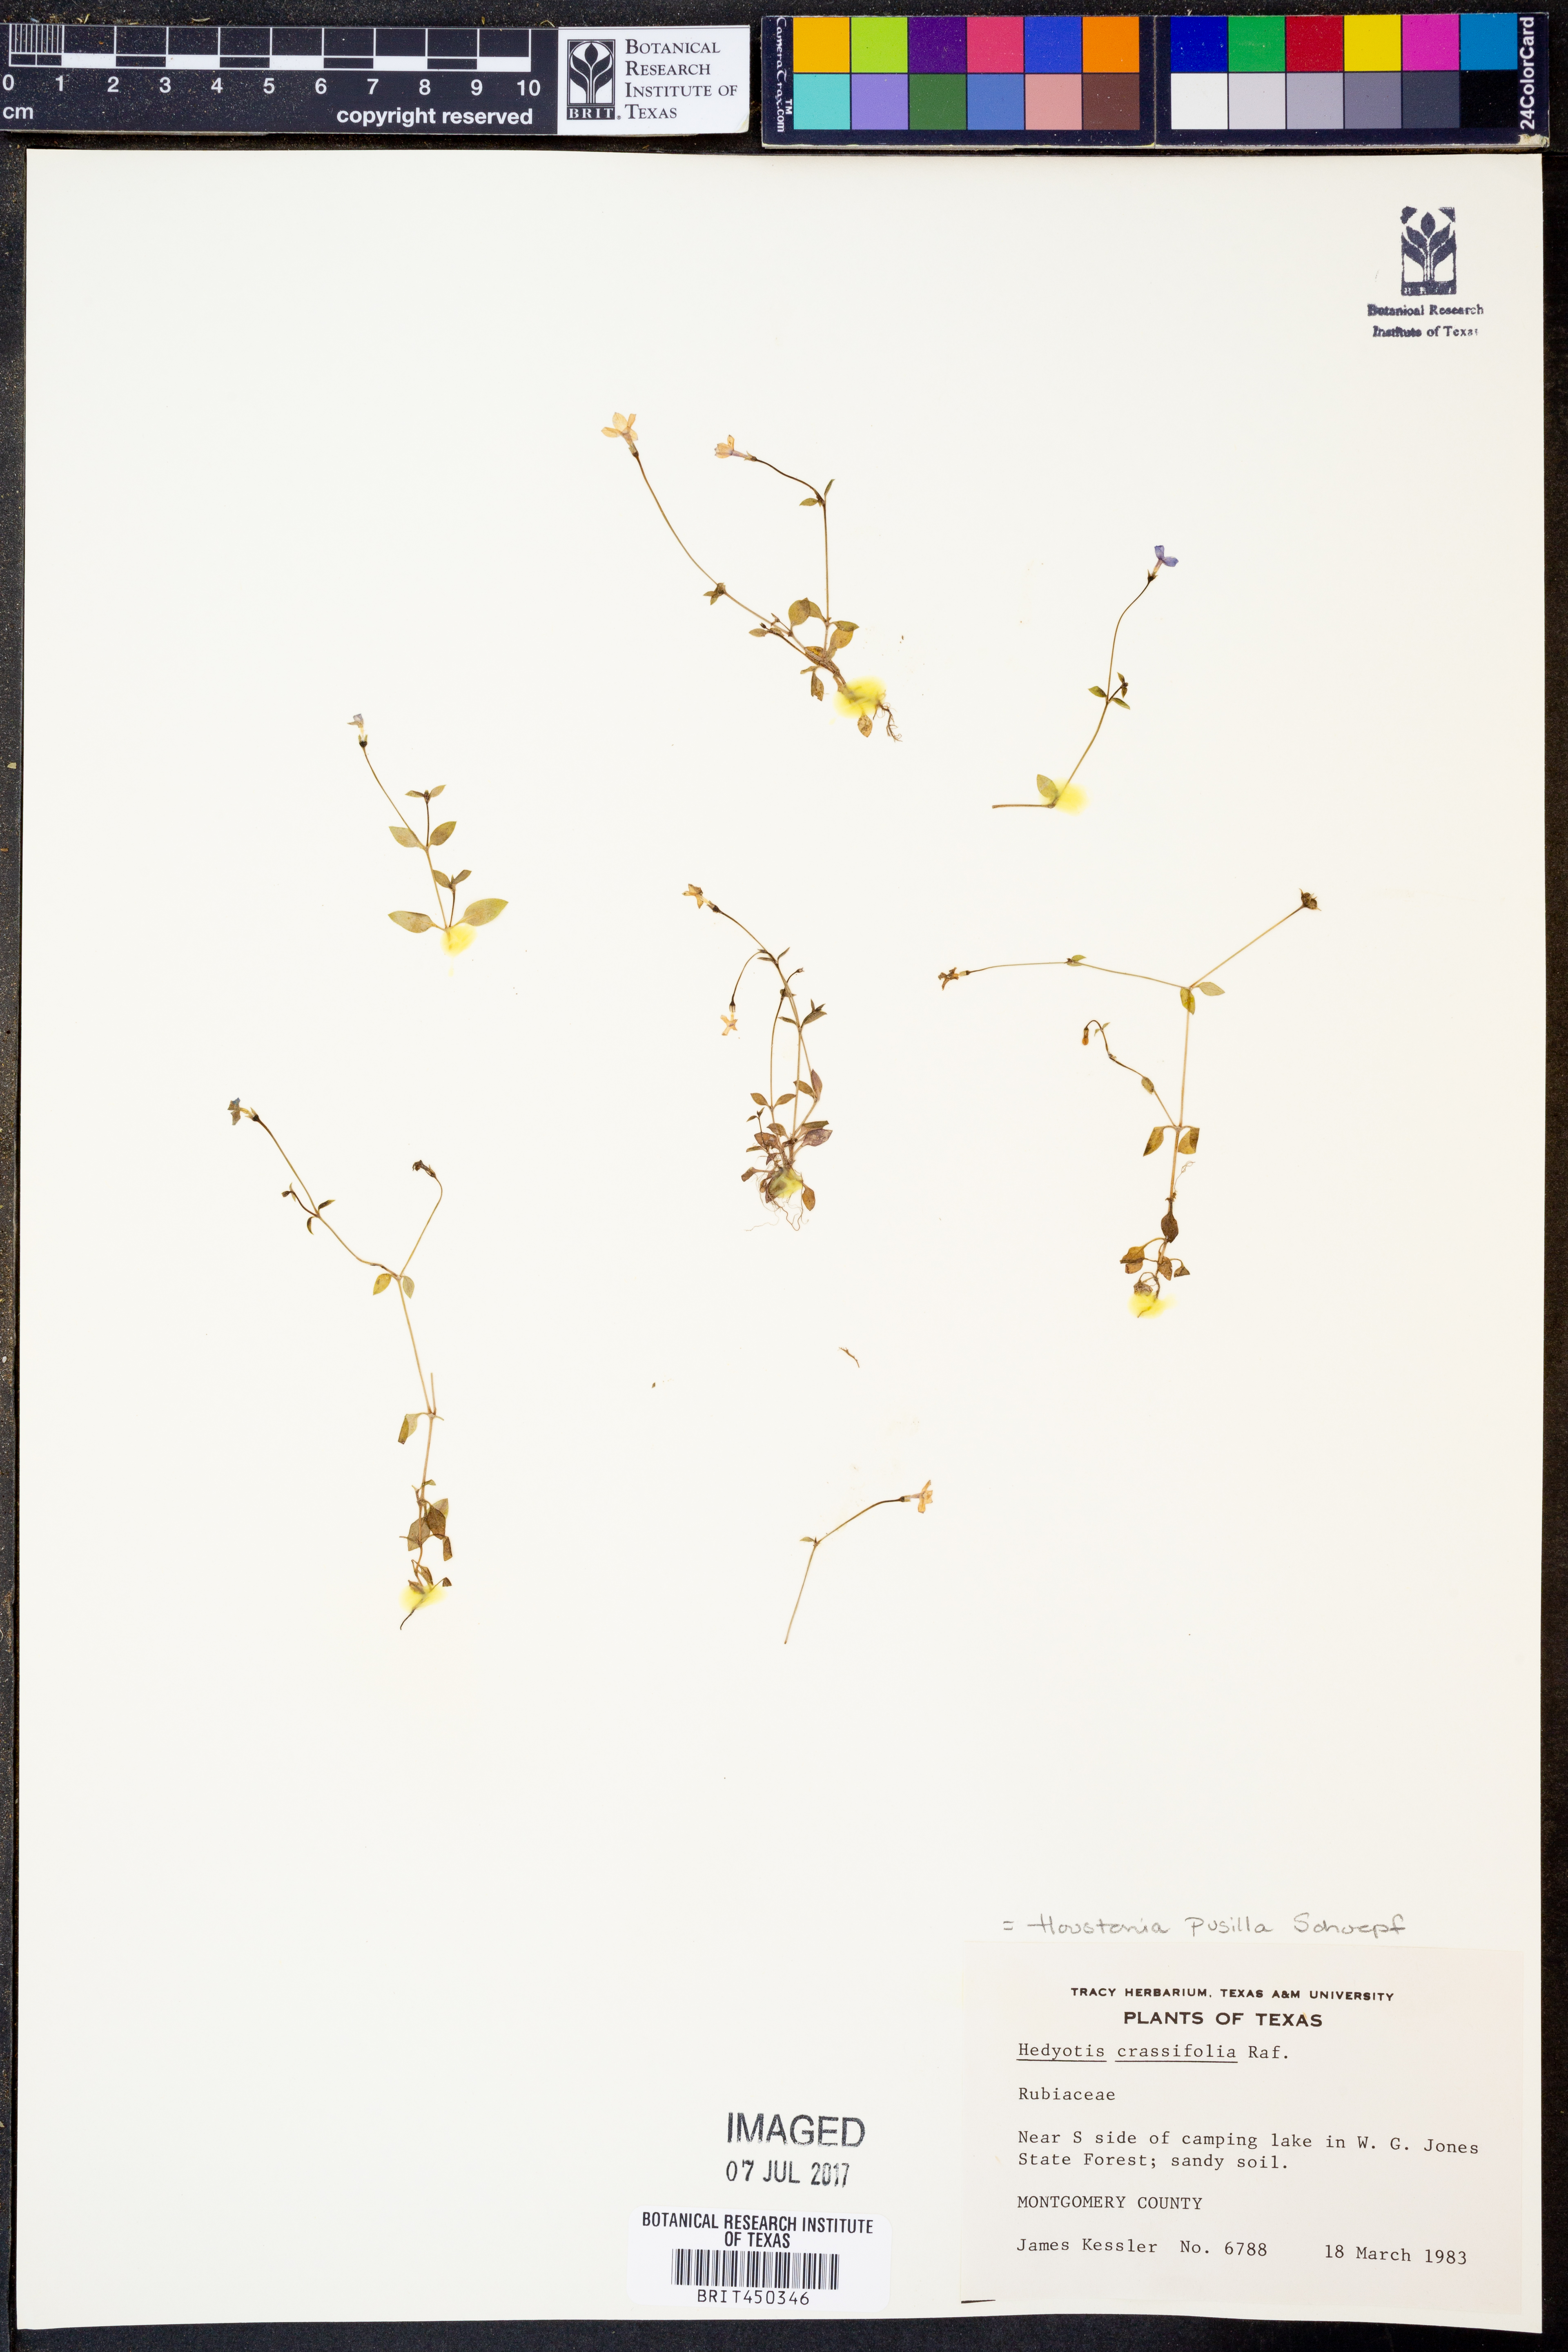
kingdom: Plantae
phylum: Tracheophyta
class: Magnoliopsida
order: Gentianales
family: Rubiaceae
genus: Houstonia
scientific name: Houstonia pusilla
